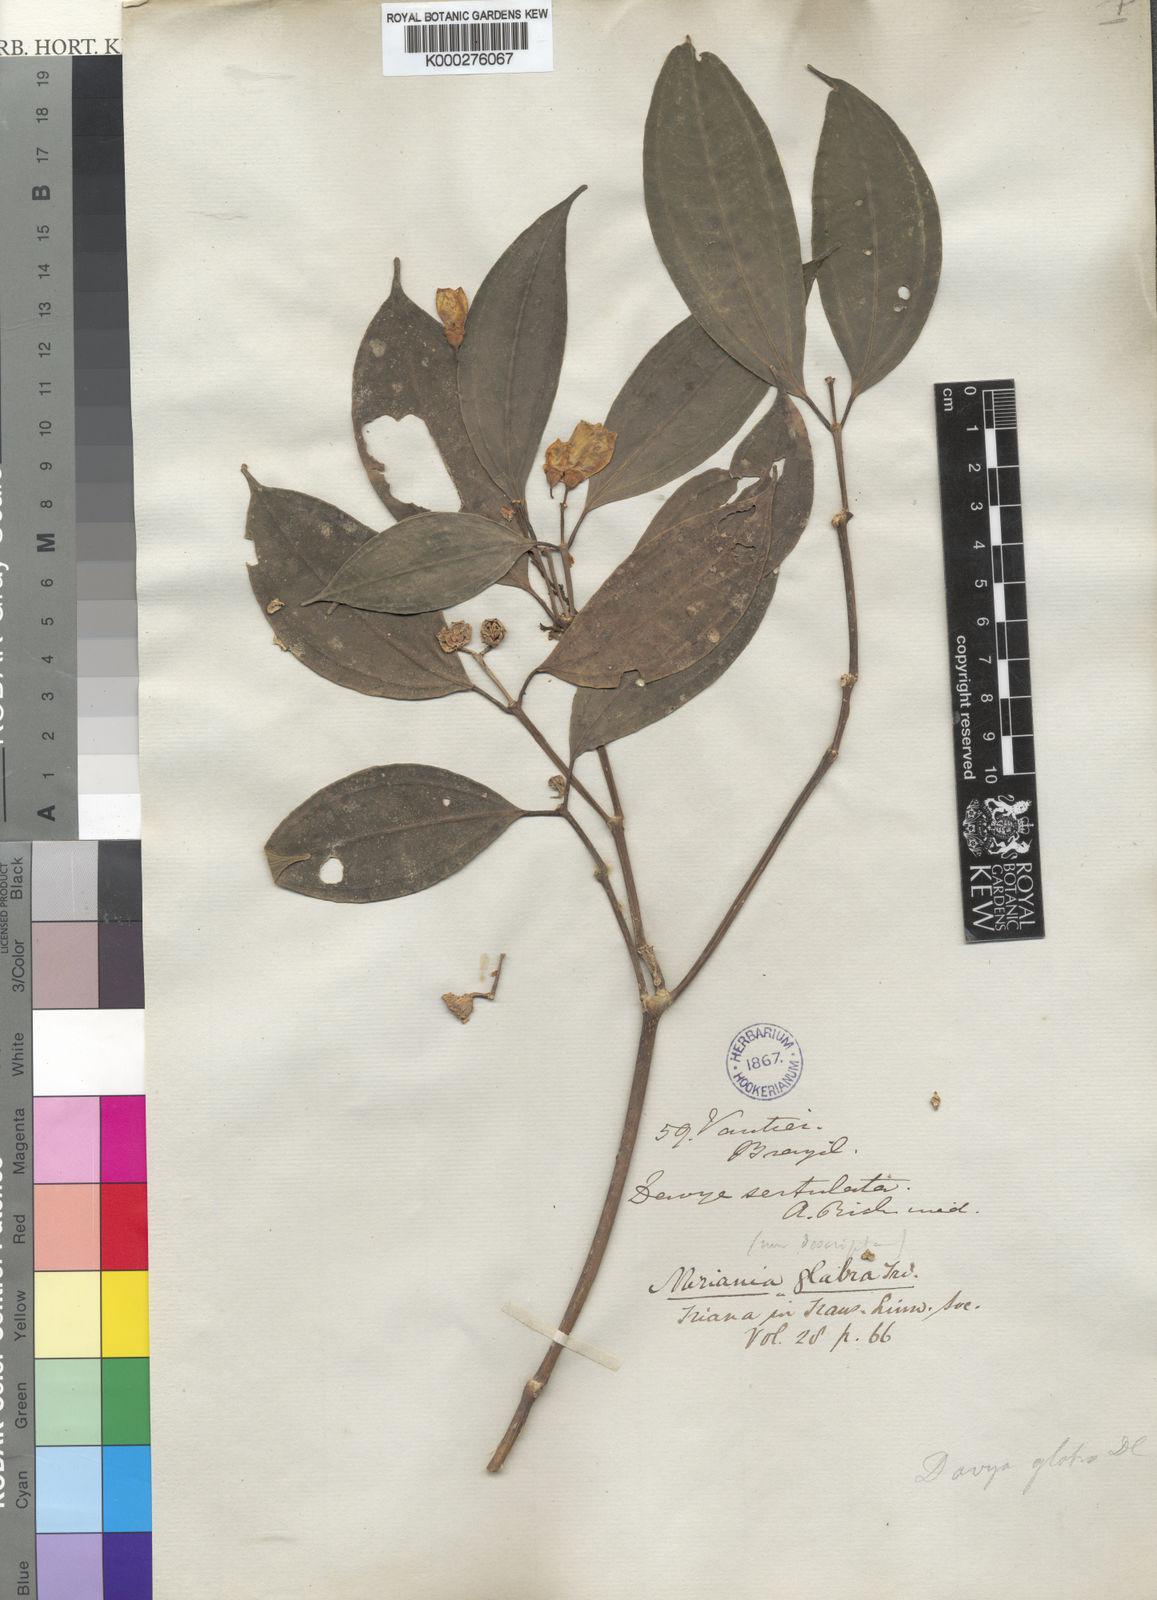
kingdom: Plantae
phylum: Tracheophyta
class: Magnoliopsida
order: Myrtales
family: Melastomataceae
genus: Meriania
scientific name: Meriania glabra
